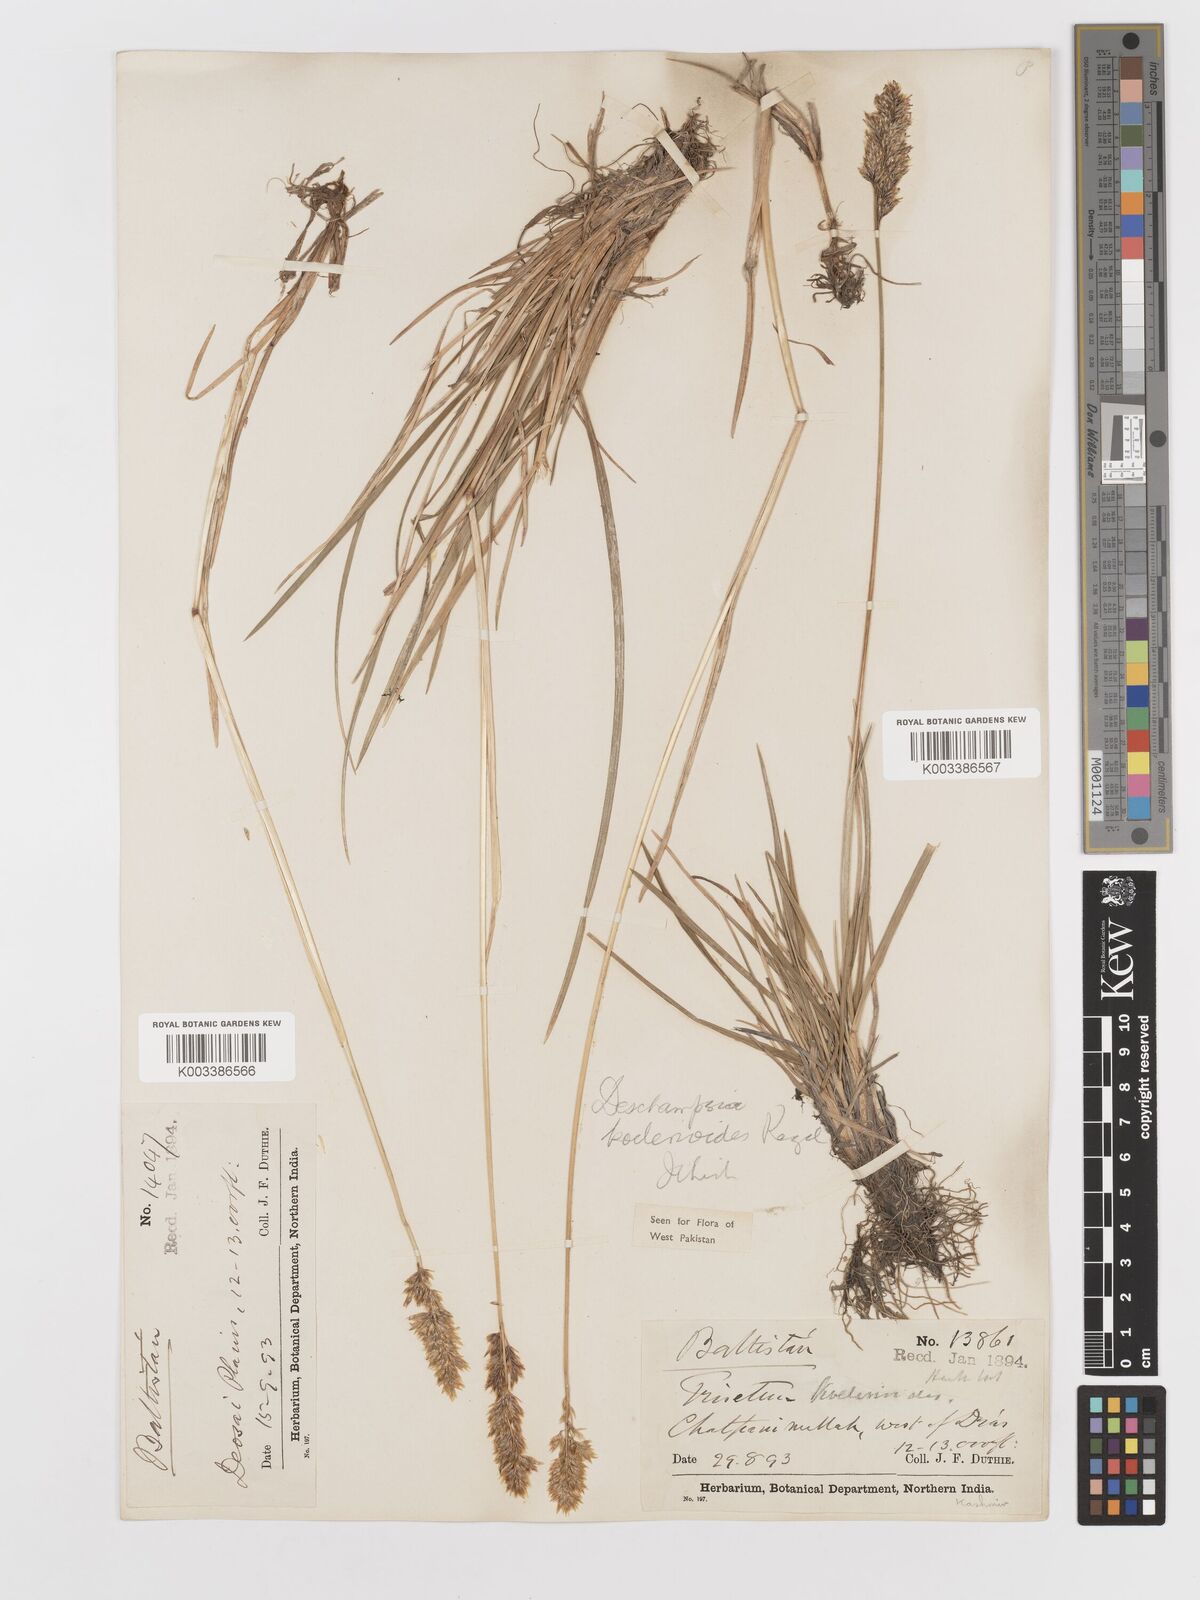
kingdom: Plantae
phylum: Tracheophyta
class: Liliopsida
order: Poales
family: Poaceae
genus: Deschampsia
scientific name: Deschampsia koelerioides
